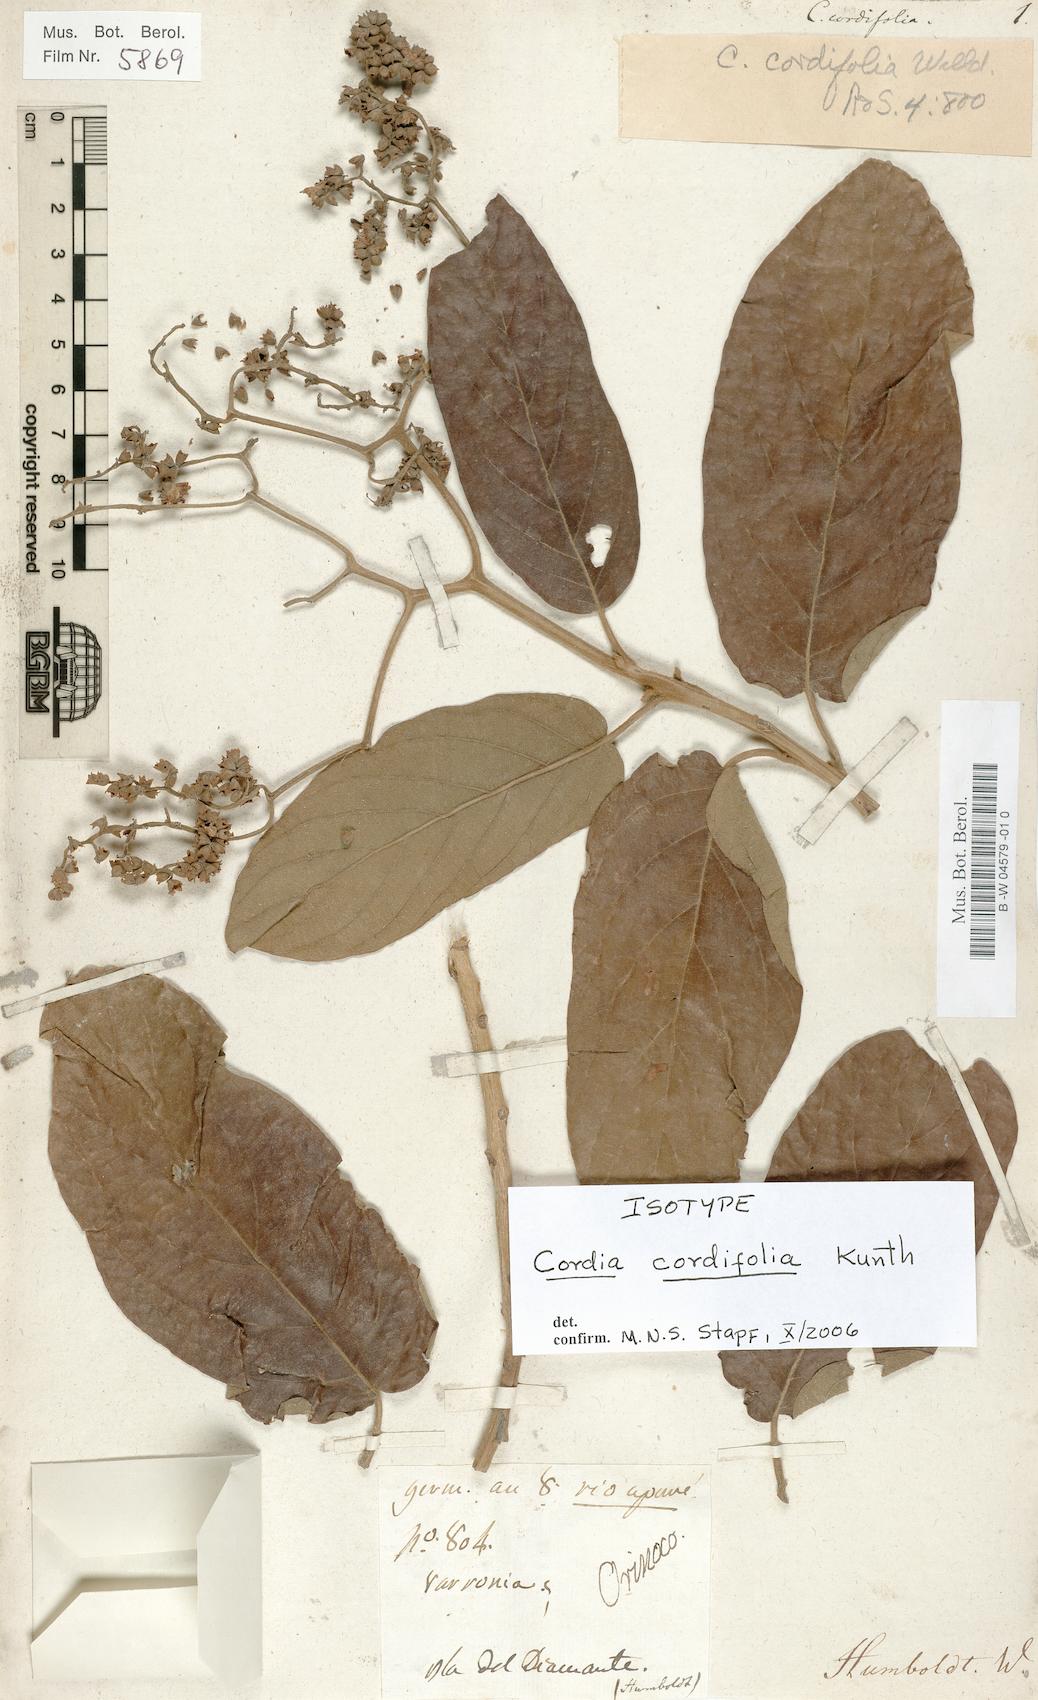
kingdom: Plantae
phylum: Tracheophyta
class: Magnoliopsida
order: Boraginales
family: Cordiaceae
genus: Cordia
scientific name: Cordia tetrandra
